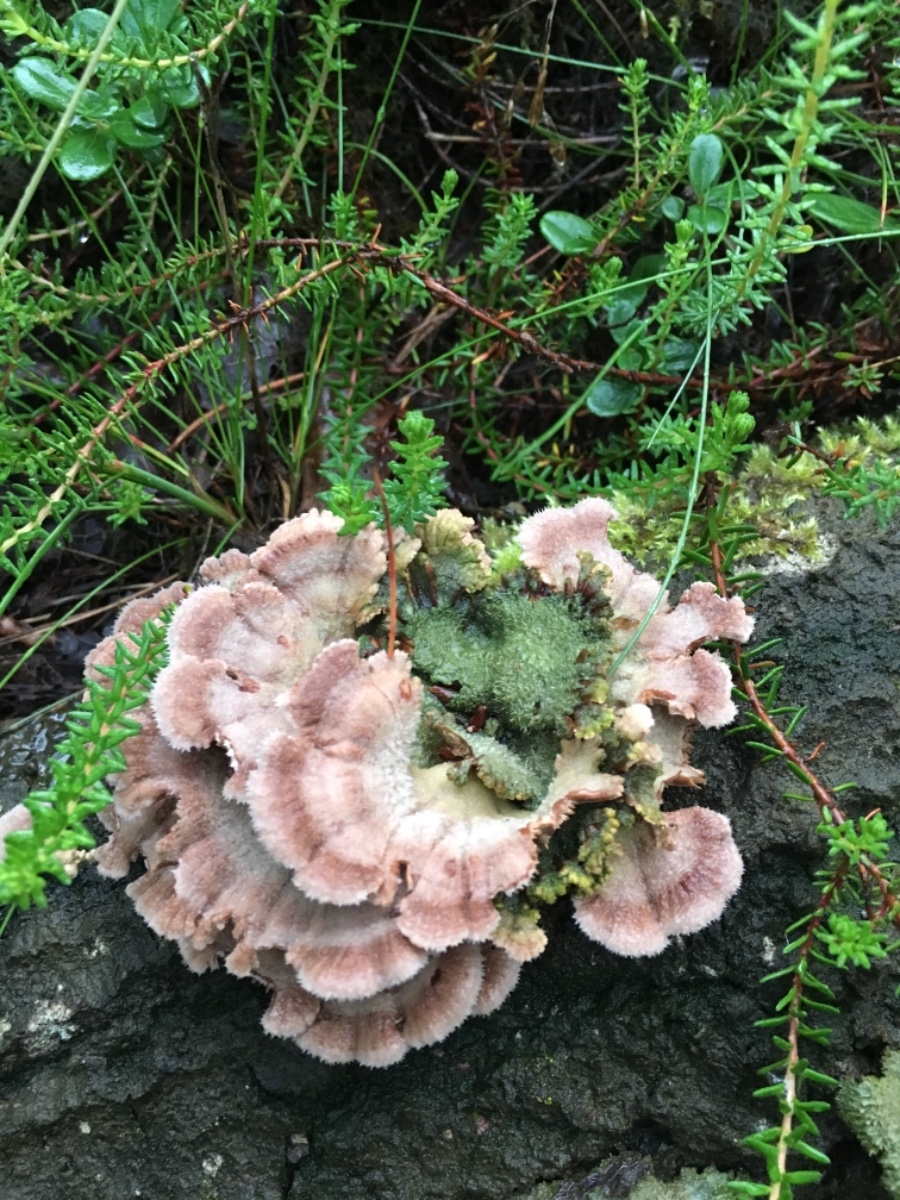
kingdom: Fungi
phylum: Basidiomycota
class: Agaricomycetes
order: Agaricales
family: Schizophyllaceae
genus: Schizophyllum
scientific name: Schizophyllum commune
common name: kløvblad
